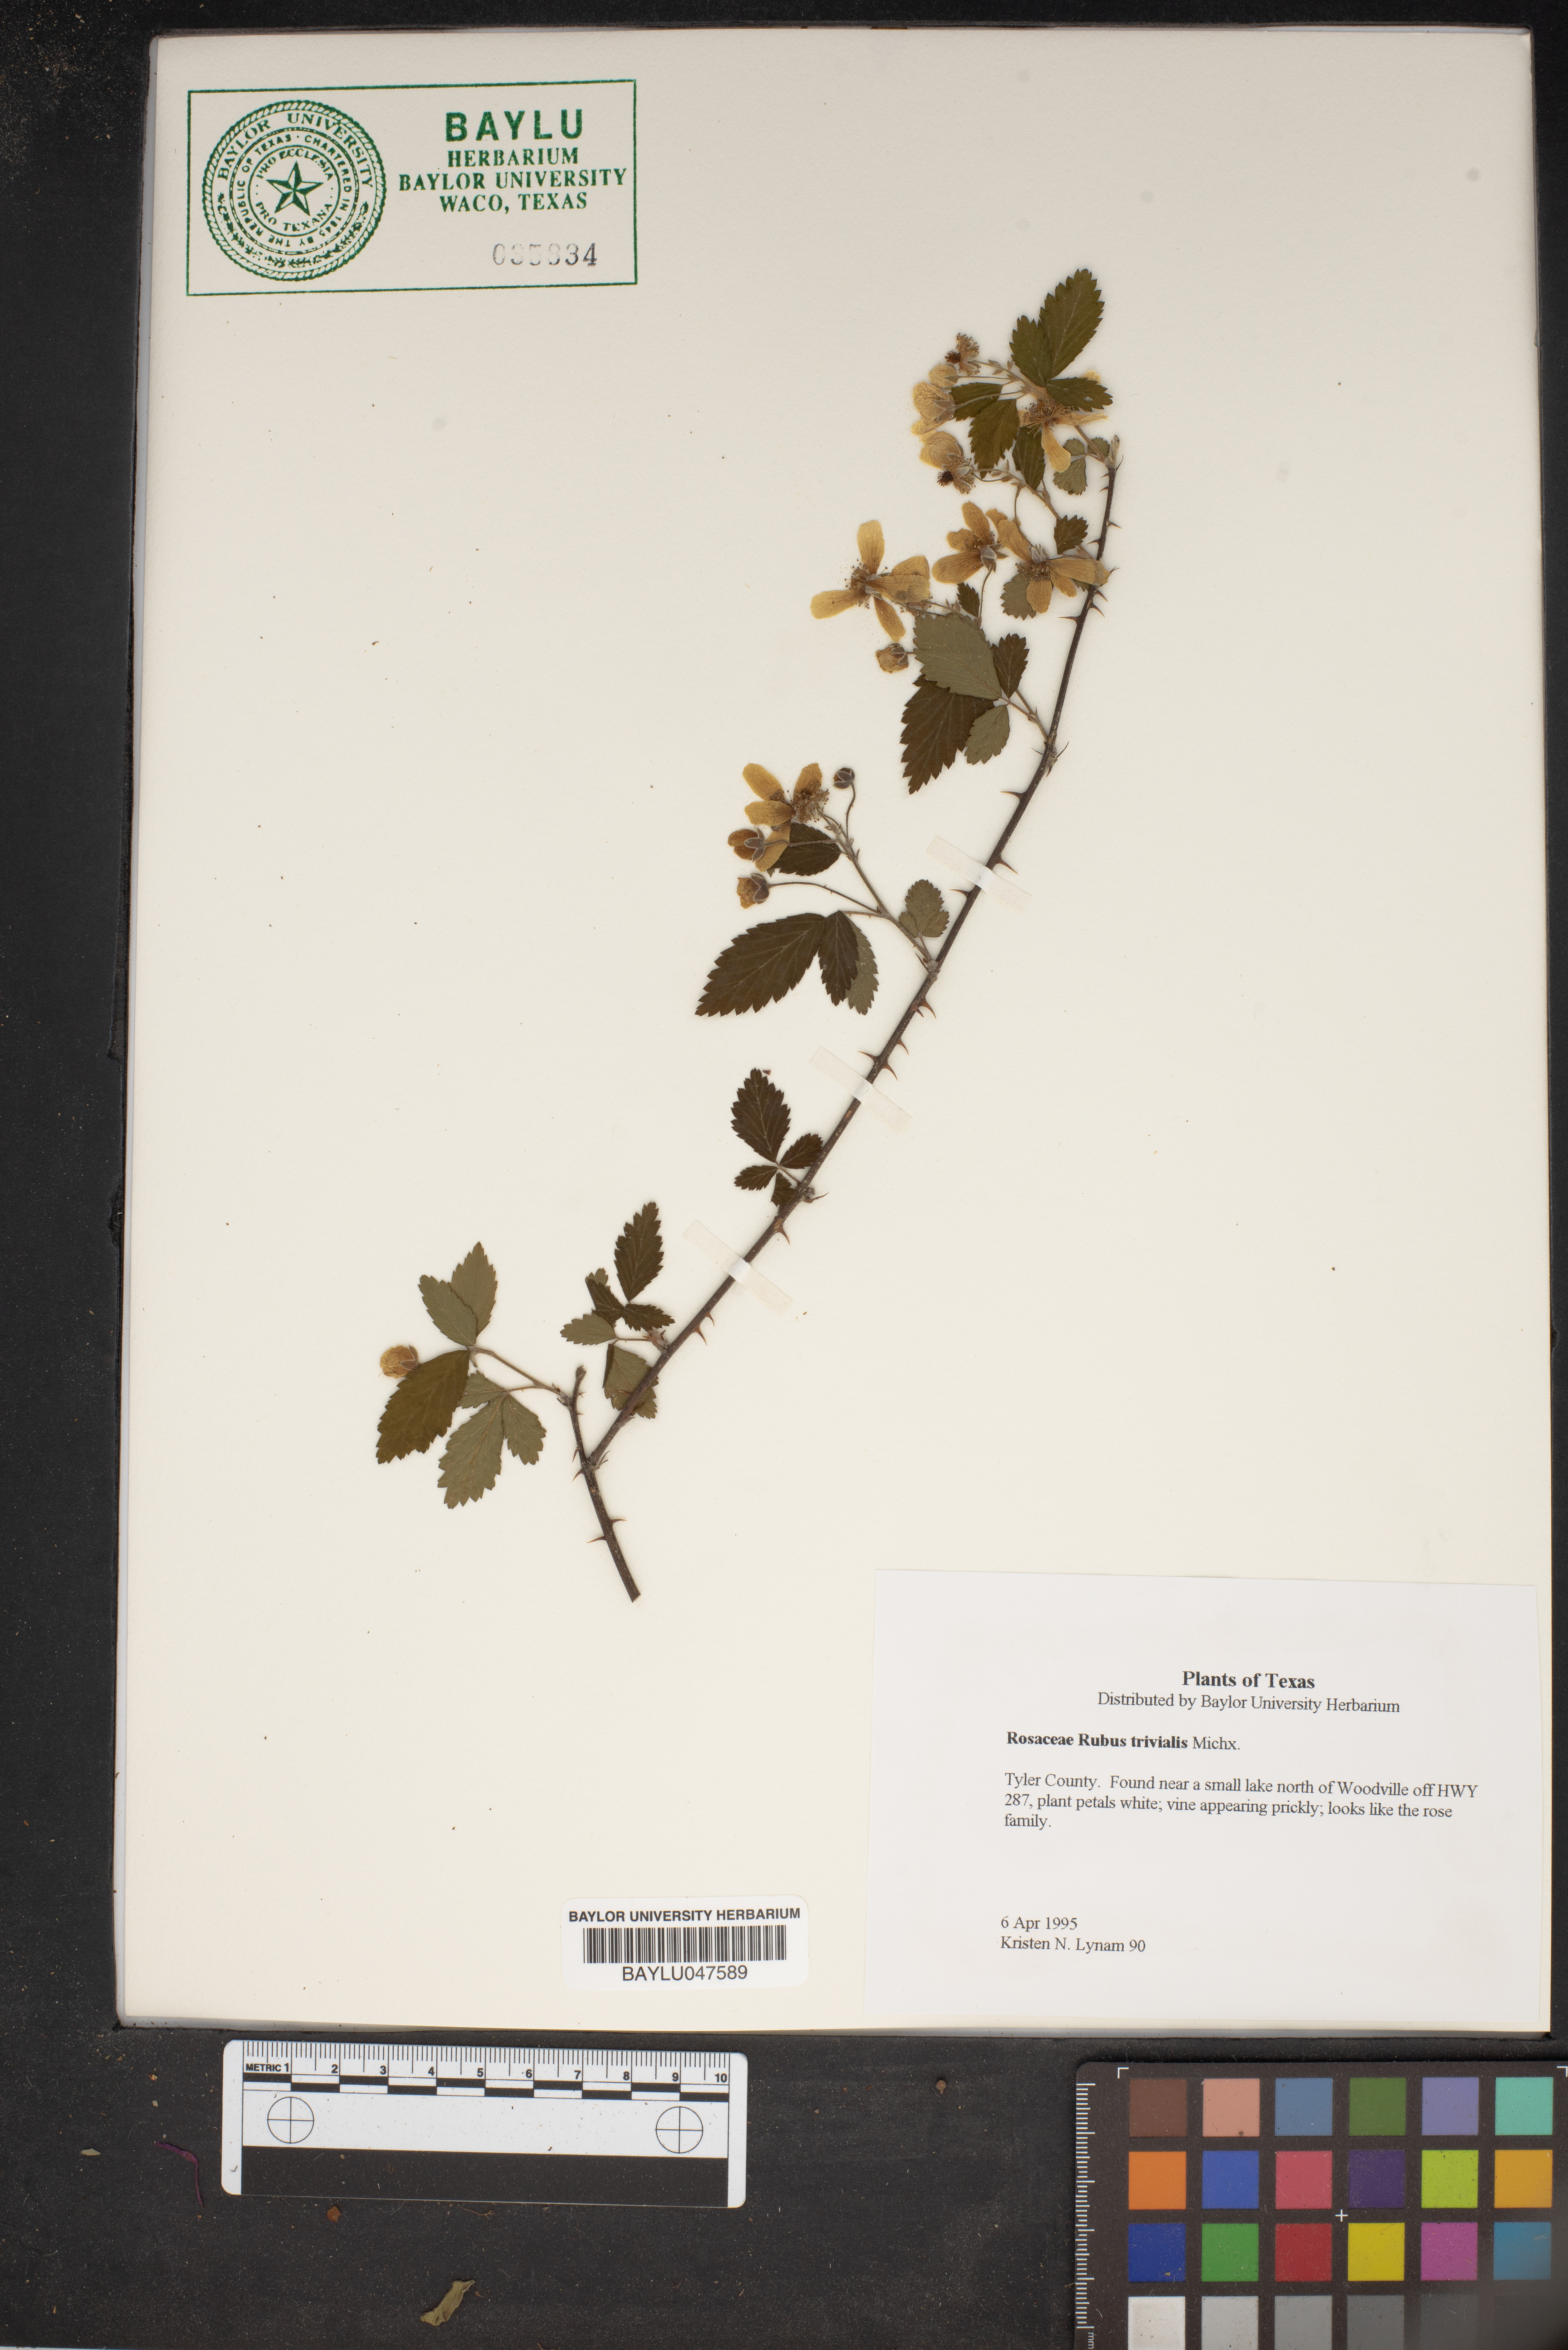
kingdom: Plantae
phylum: Tracheophyta
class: Magnoliopsida
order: Rosales
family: Rosaceae
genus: Rubus
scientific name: Rubus trivialis
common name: Southern dewberry
